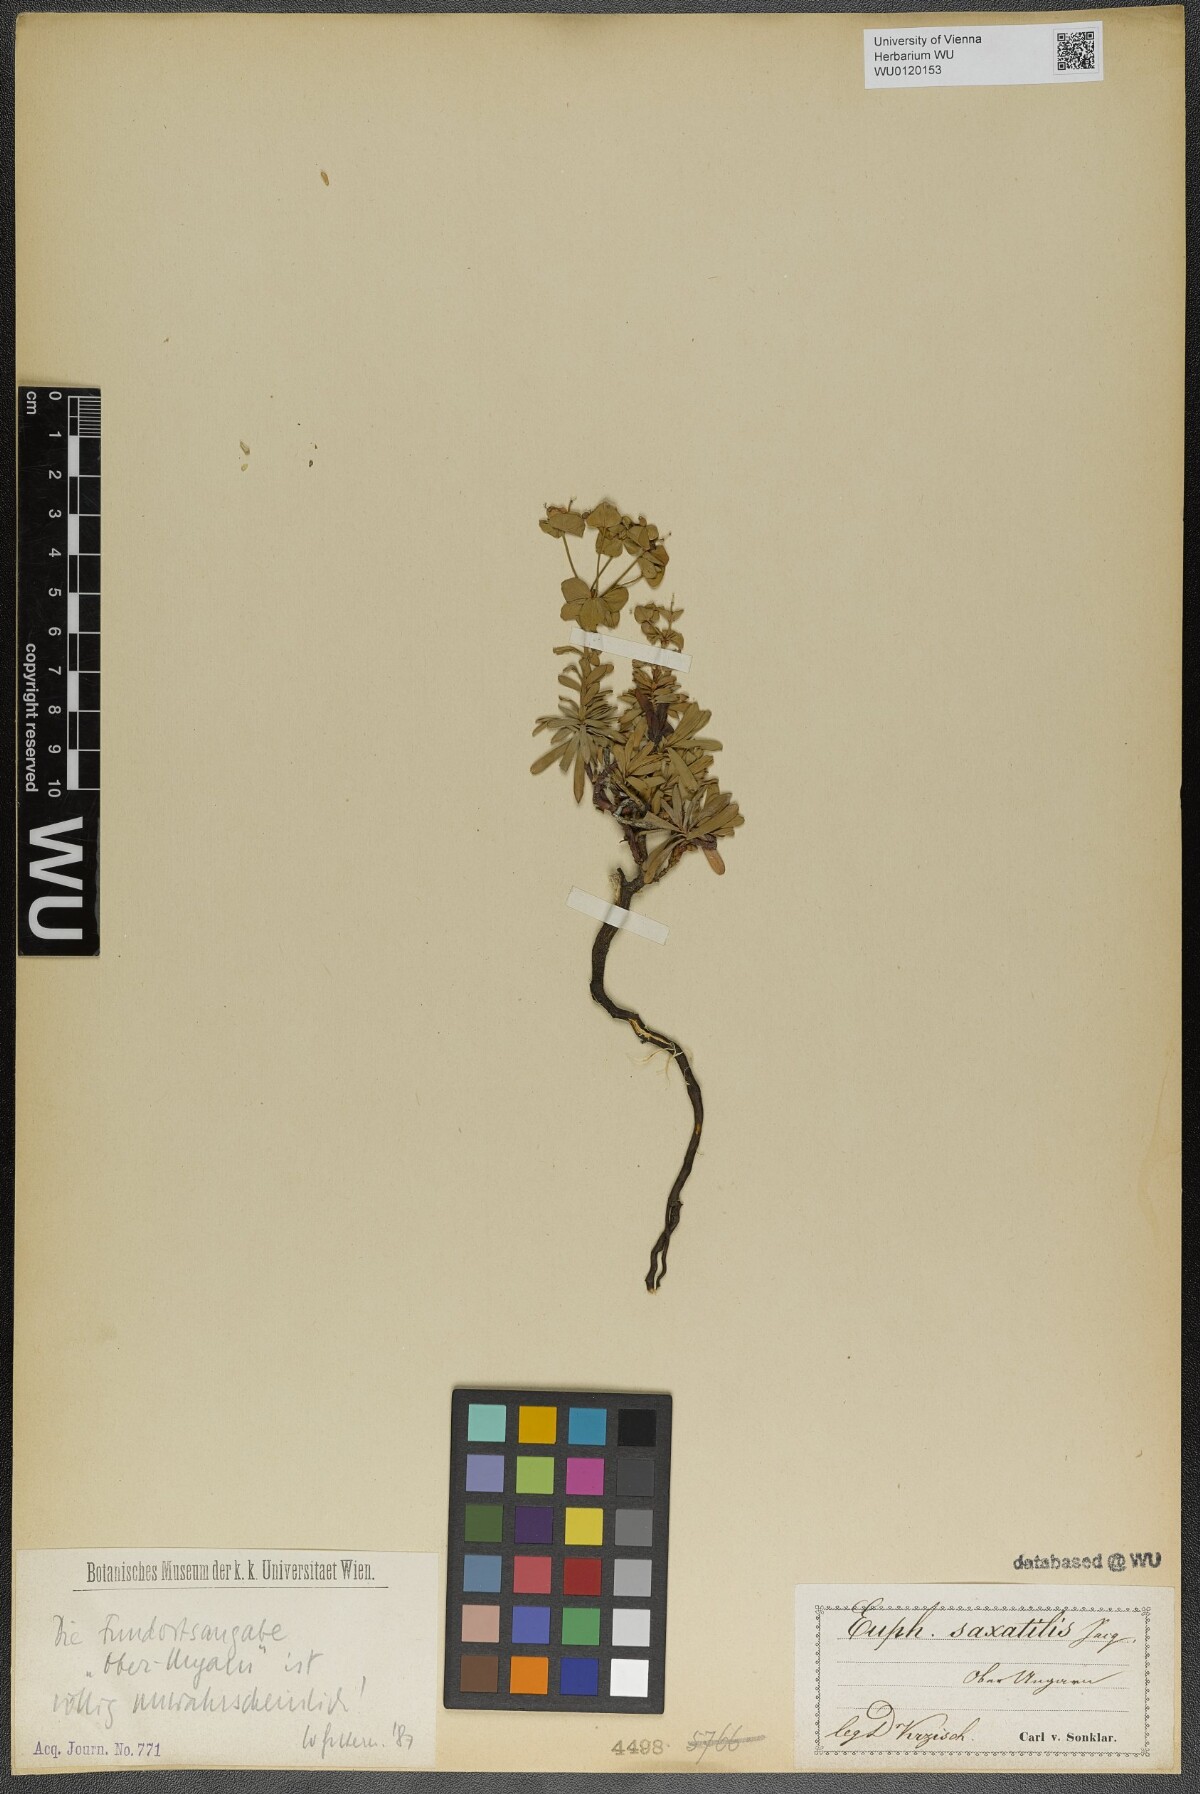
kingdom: Plantae
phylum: Tracheophyta
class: Magnoliopsida
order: Malpighiales
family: Euphorbiaceae
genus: Euphorbia
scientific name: Euphorbia saxatilis
